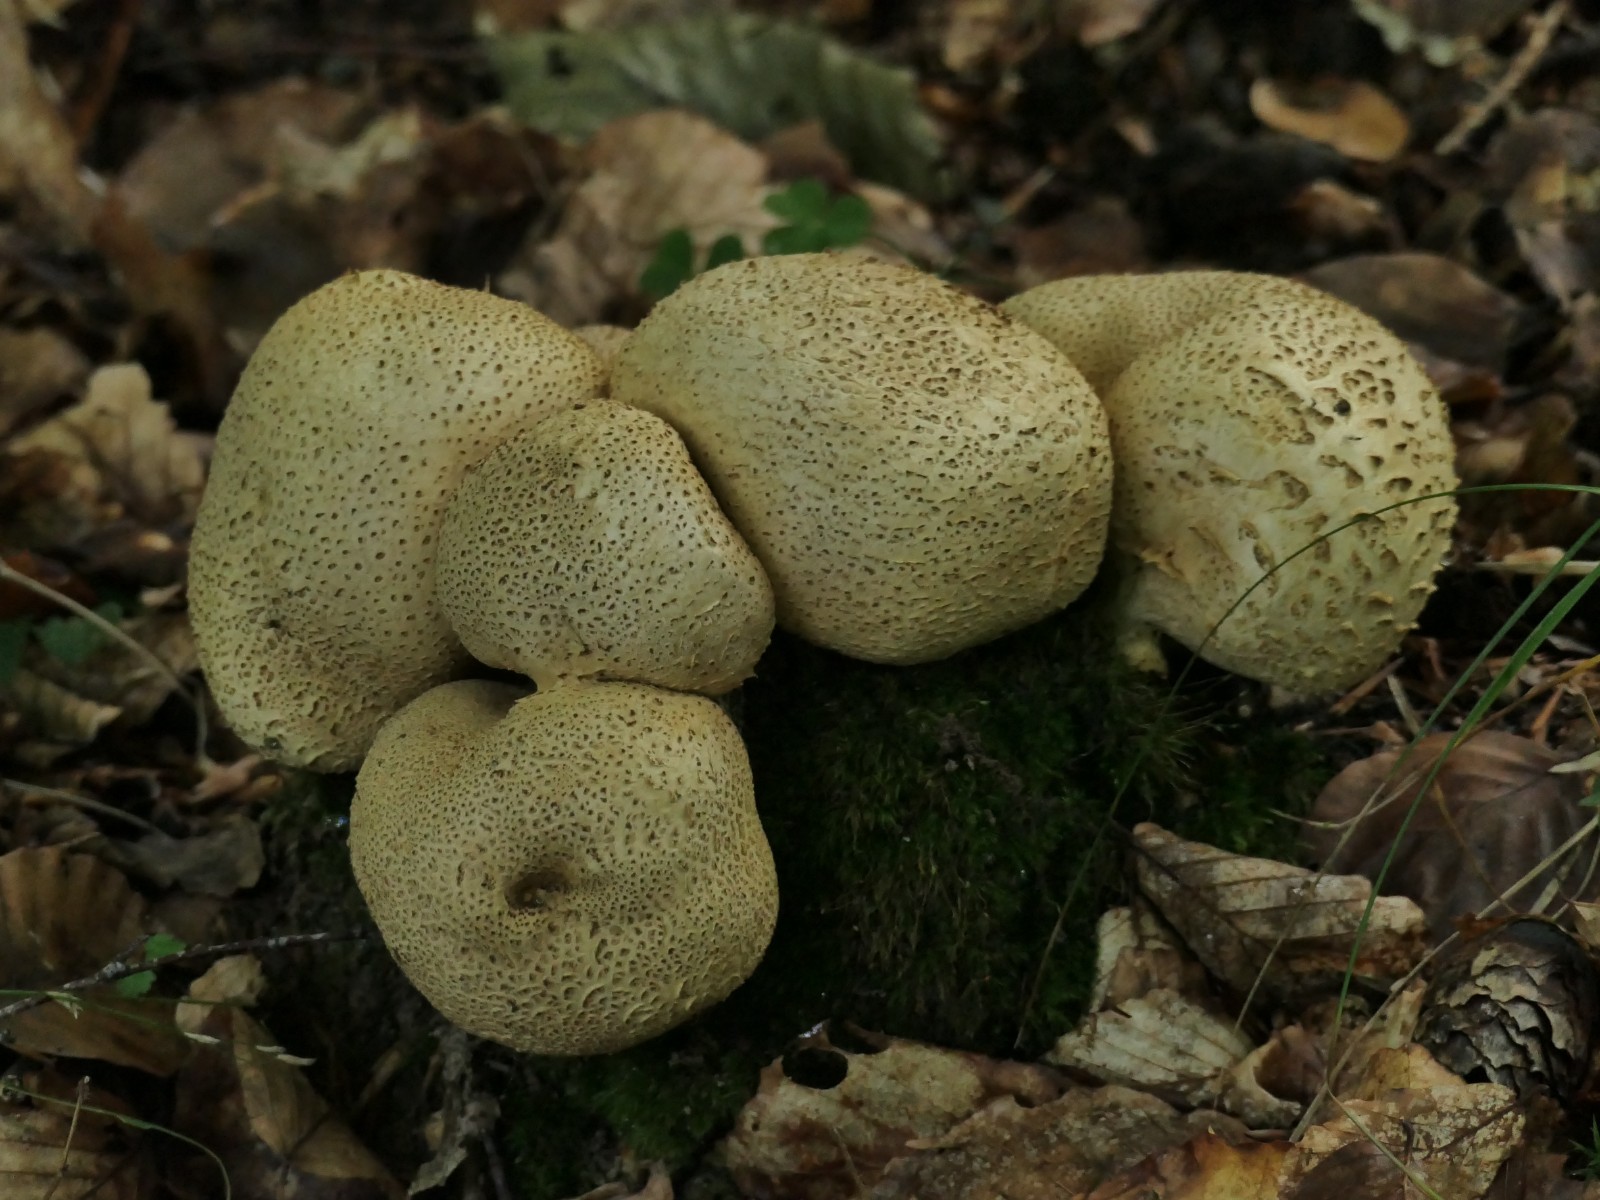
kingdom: Fungi
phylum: Basidiomycota
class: Agaricomycetes
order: Boletales
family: Sclerodermataceae
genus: Scleroderma
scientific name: Scleroderma citrinum
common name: almindelig bruskbold
